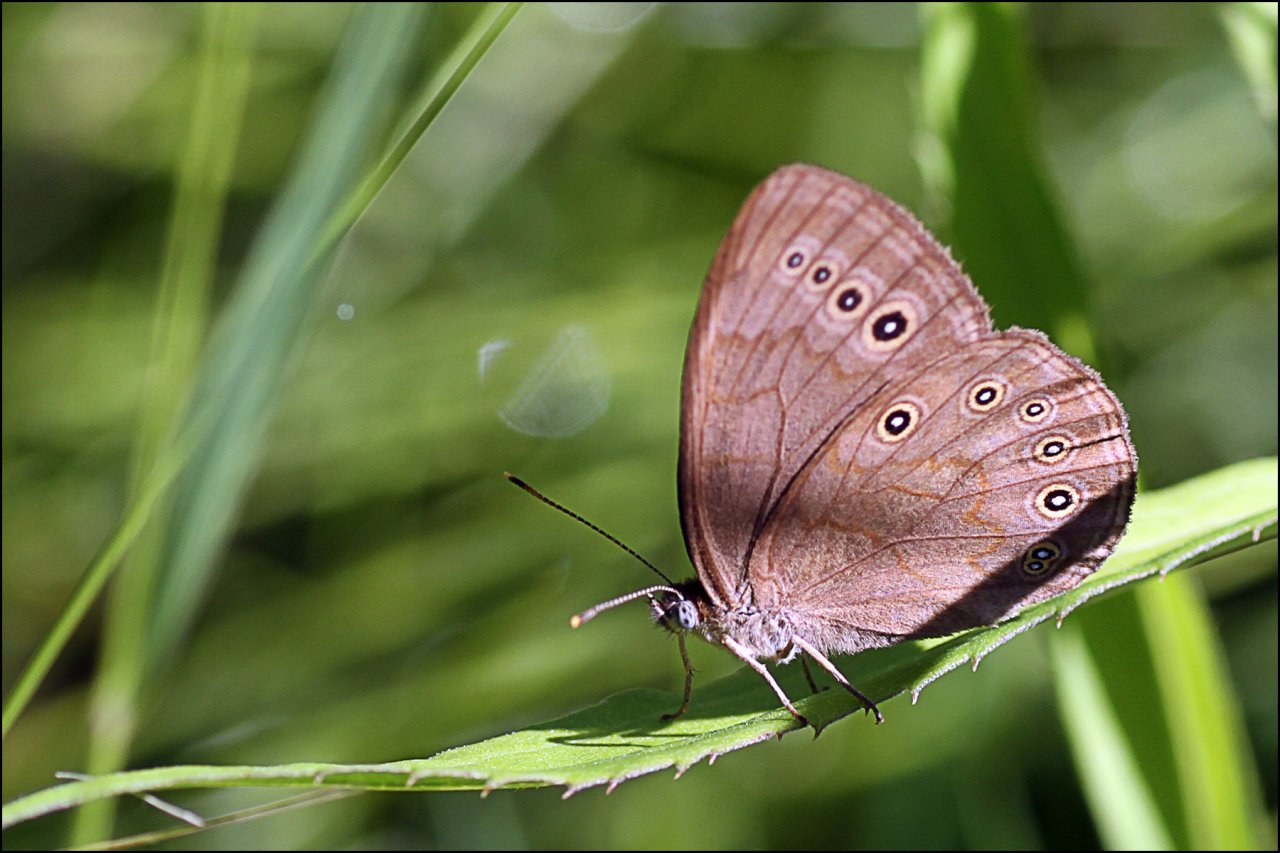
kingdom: Animalia
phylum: Arthropoda
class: Insecta
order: Lepidoptera
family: Nymphalidae
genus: Lethe
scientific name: Lethe eurydice
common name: Eyed Brown
